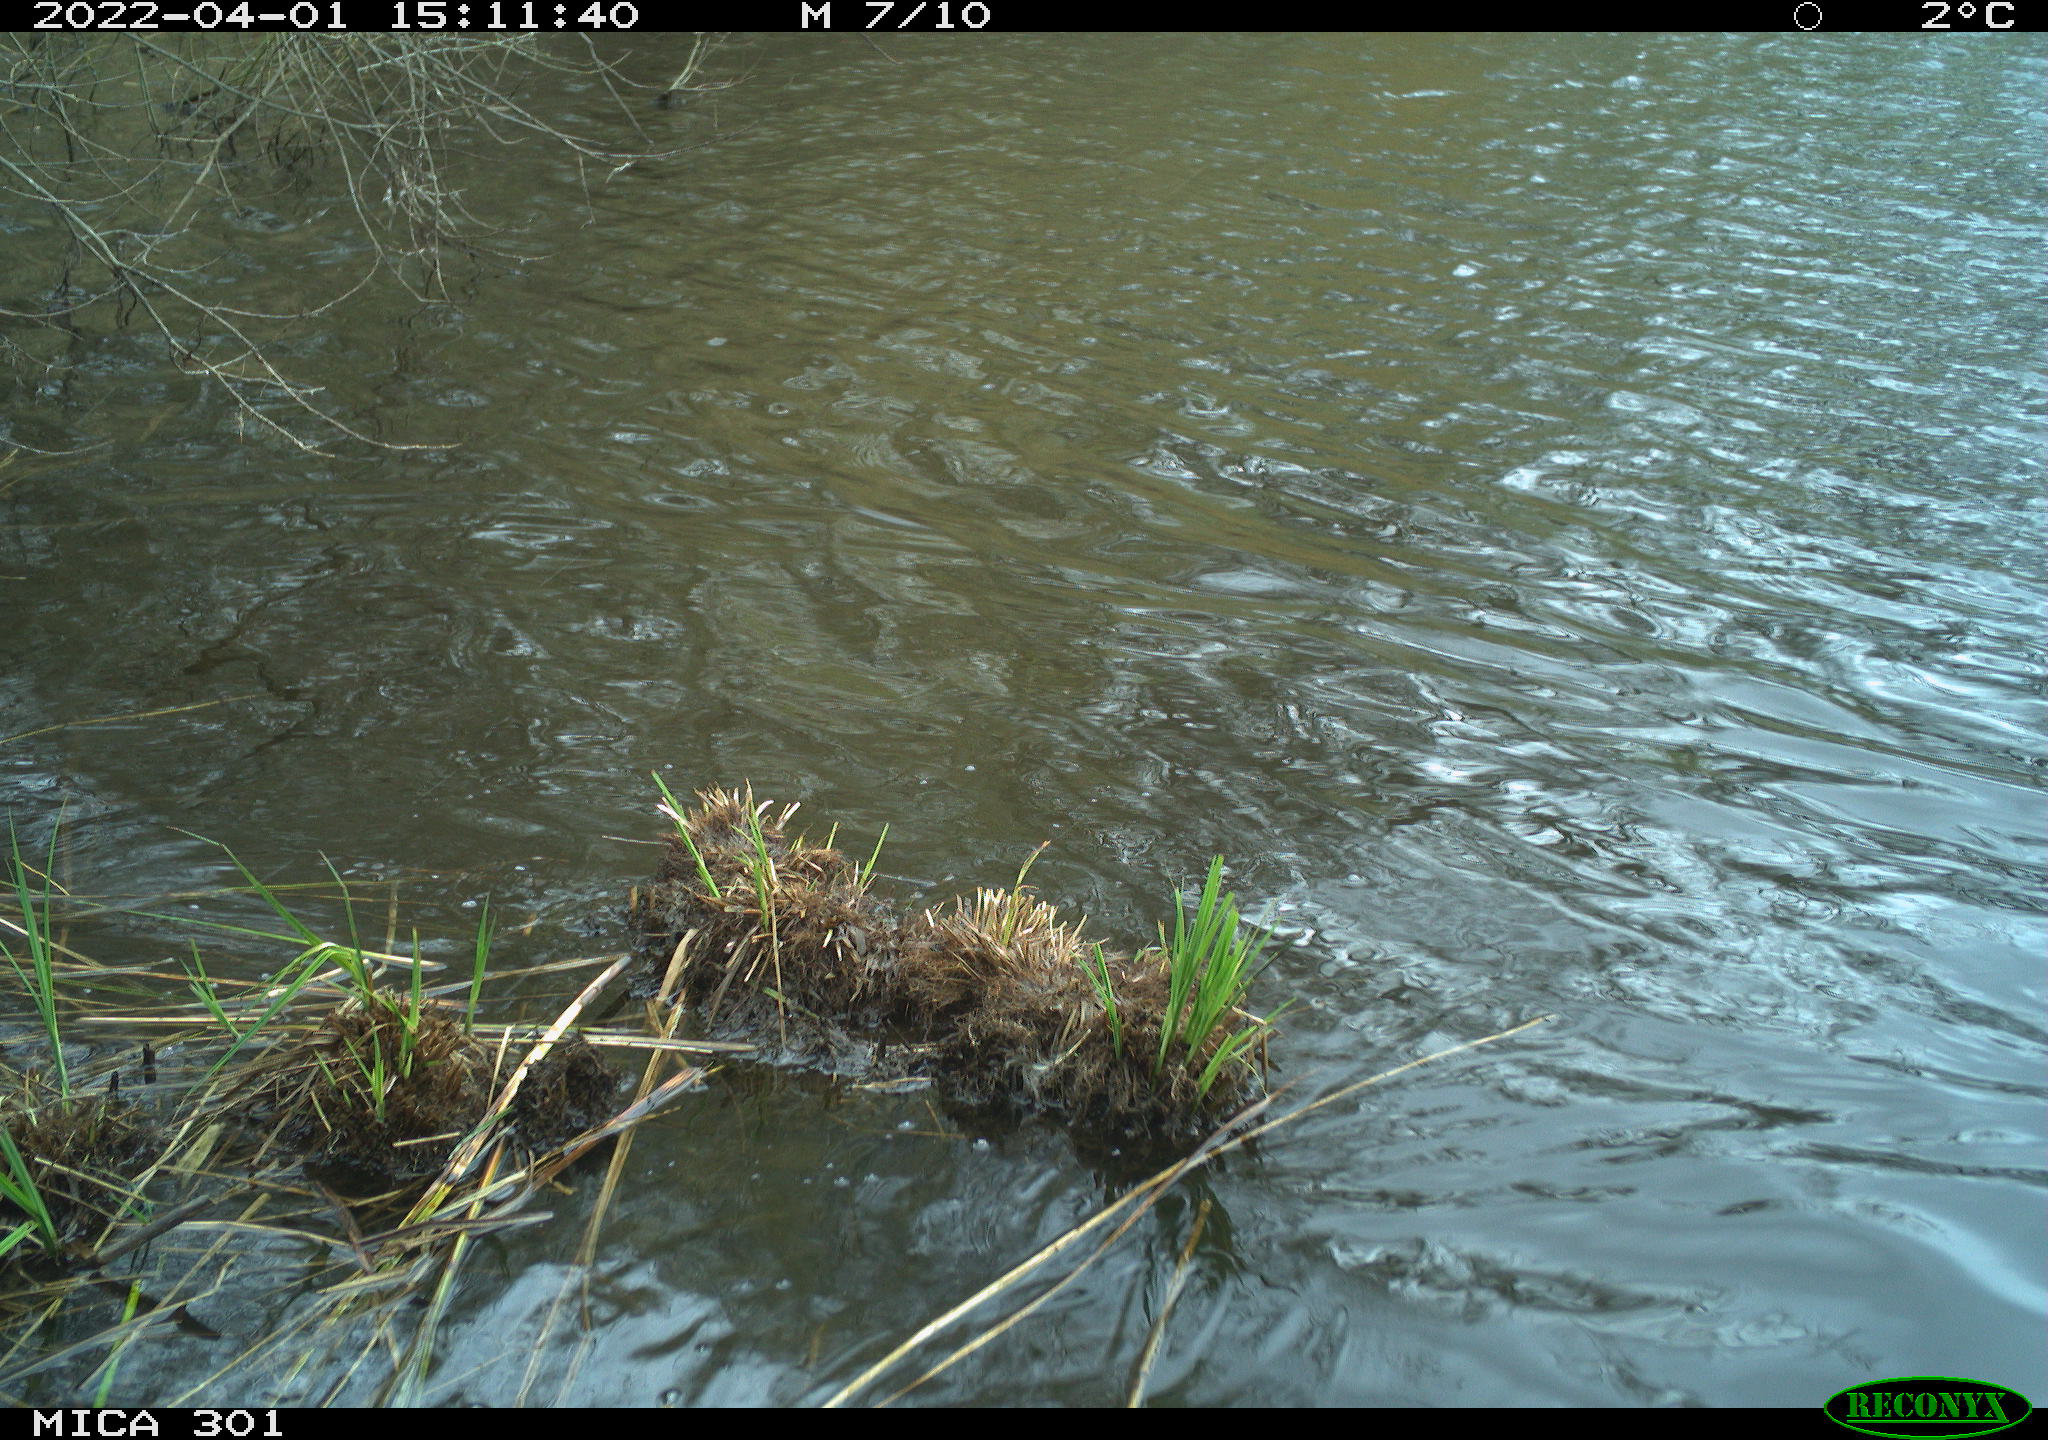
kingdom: Animalia
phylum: Chordata
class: Aves
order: Gruiformes
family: Rallidae
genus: Fulica
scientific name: Fulica atra
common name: Eurasian coot
